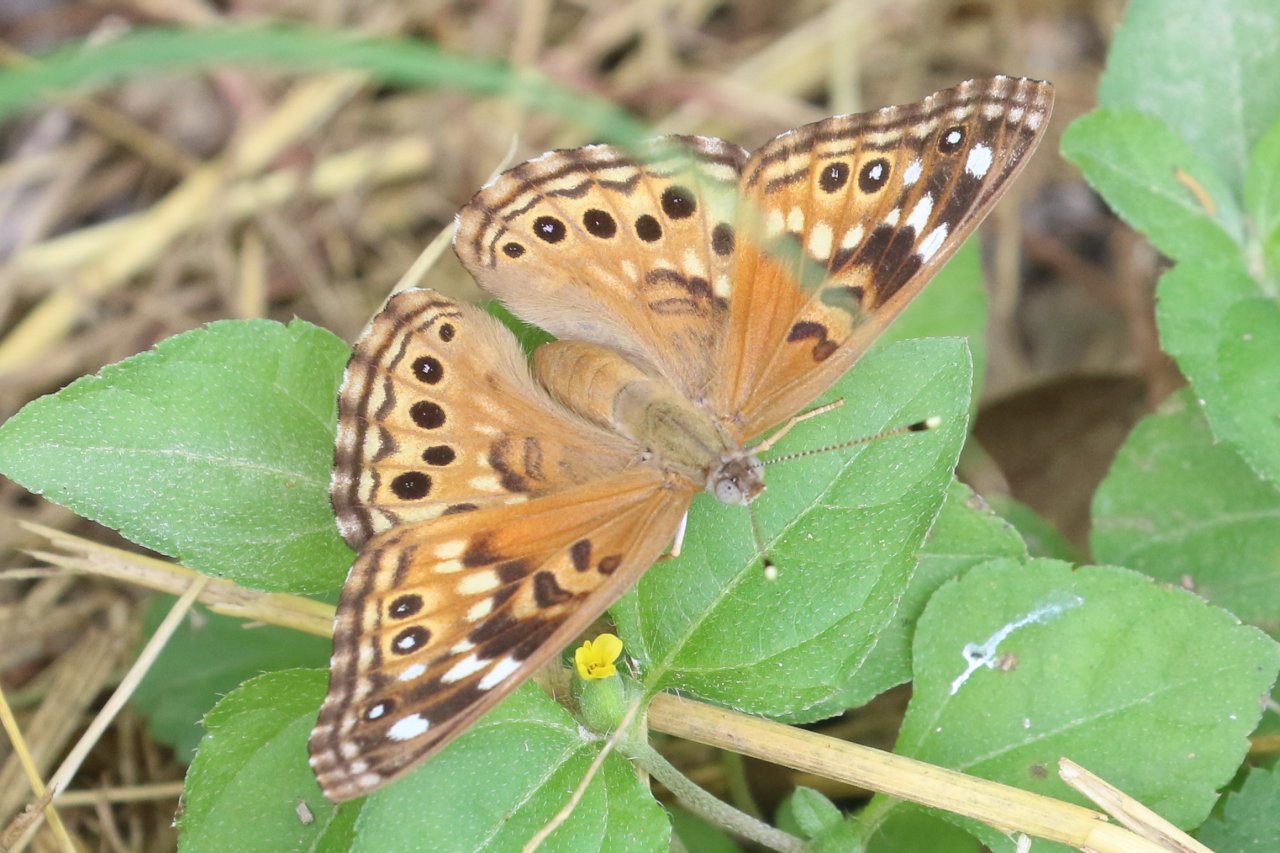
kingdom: Animalia
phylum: Arthropoda
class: Insecta
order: Lepidoptera
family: Nymphalidae
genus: Asterocampa
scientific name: Asterocampa celtis
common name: Hackberry Emperor
